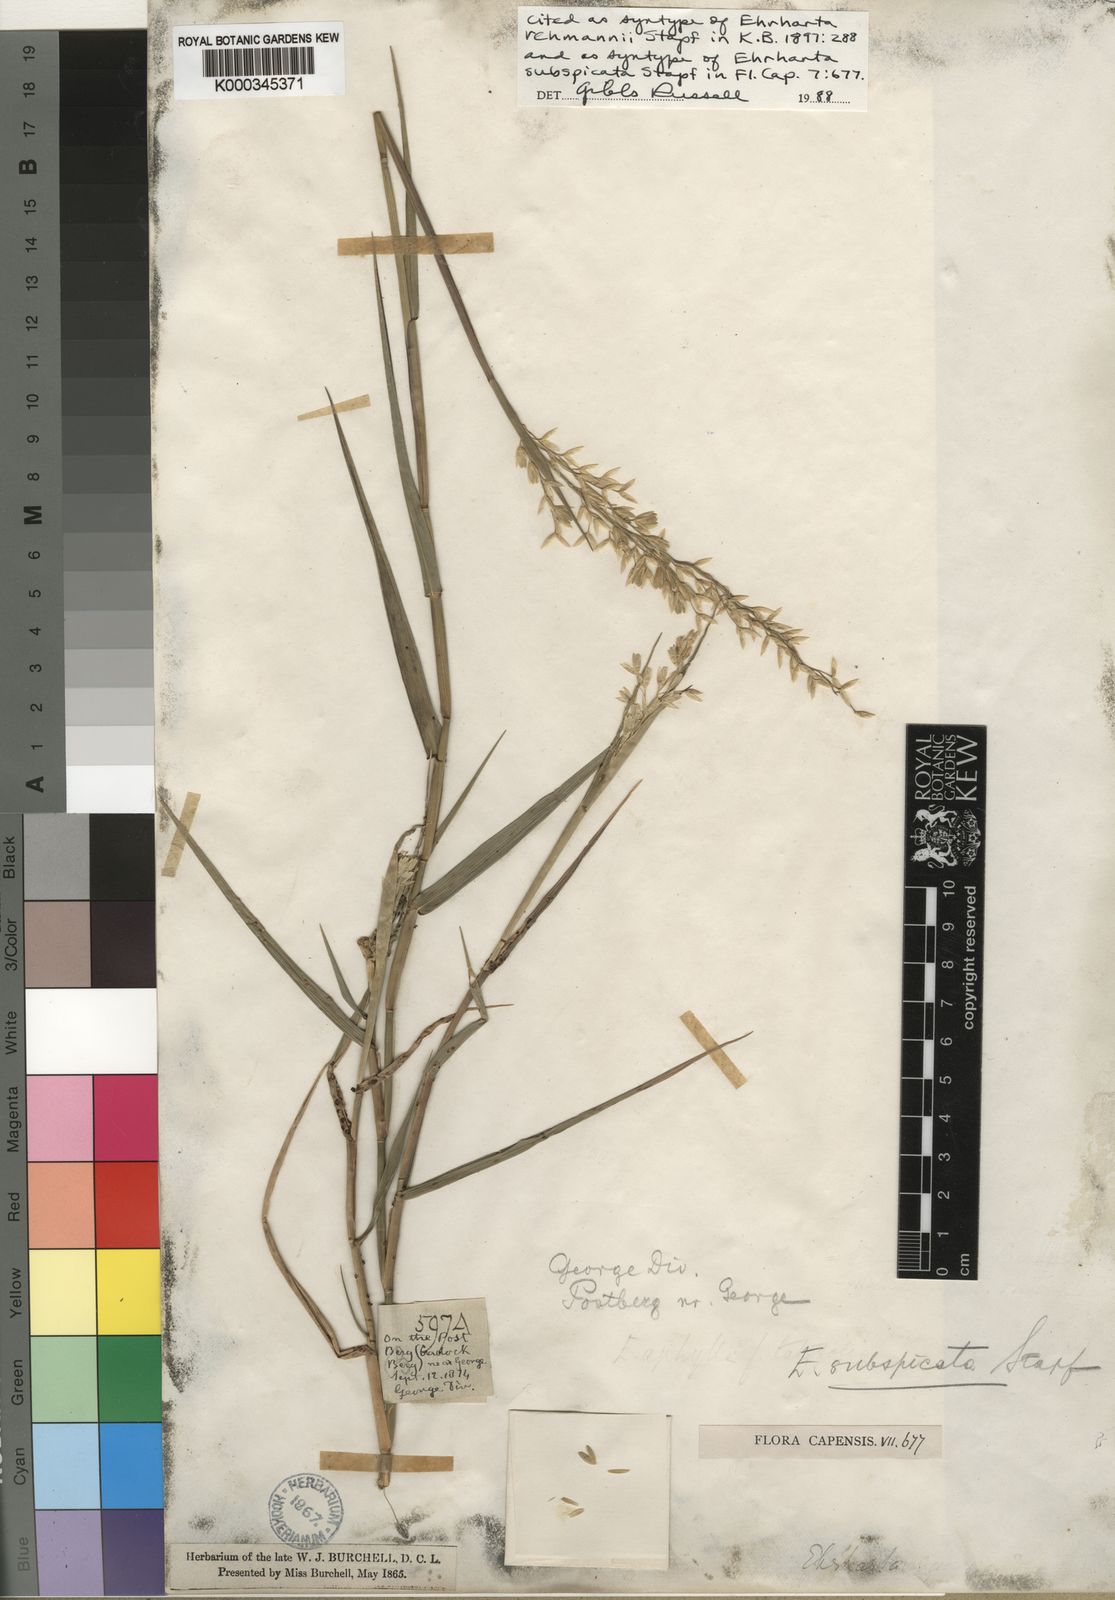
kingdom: Plantae
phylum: Tracheophyta
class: Liliopsida
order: Poales
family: Poaceae
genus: Ehrharta
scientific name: Ehrharta rehmannii
